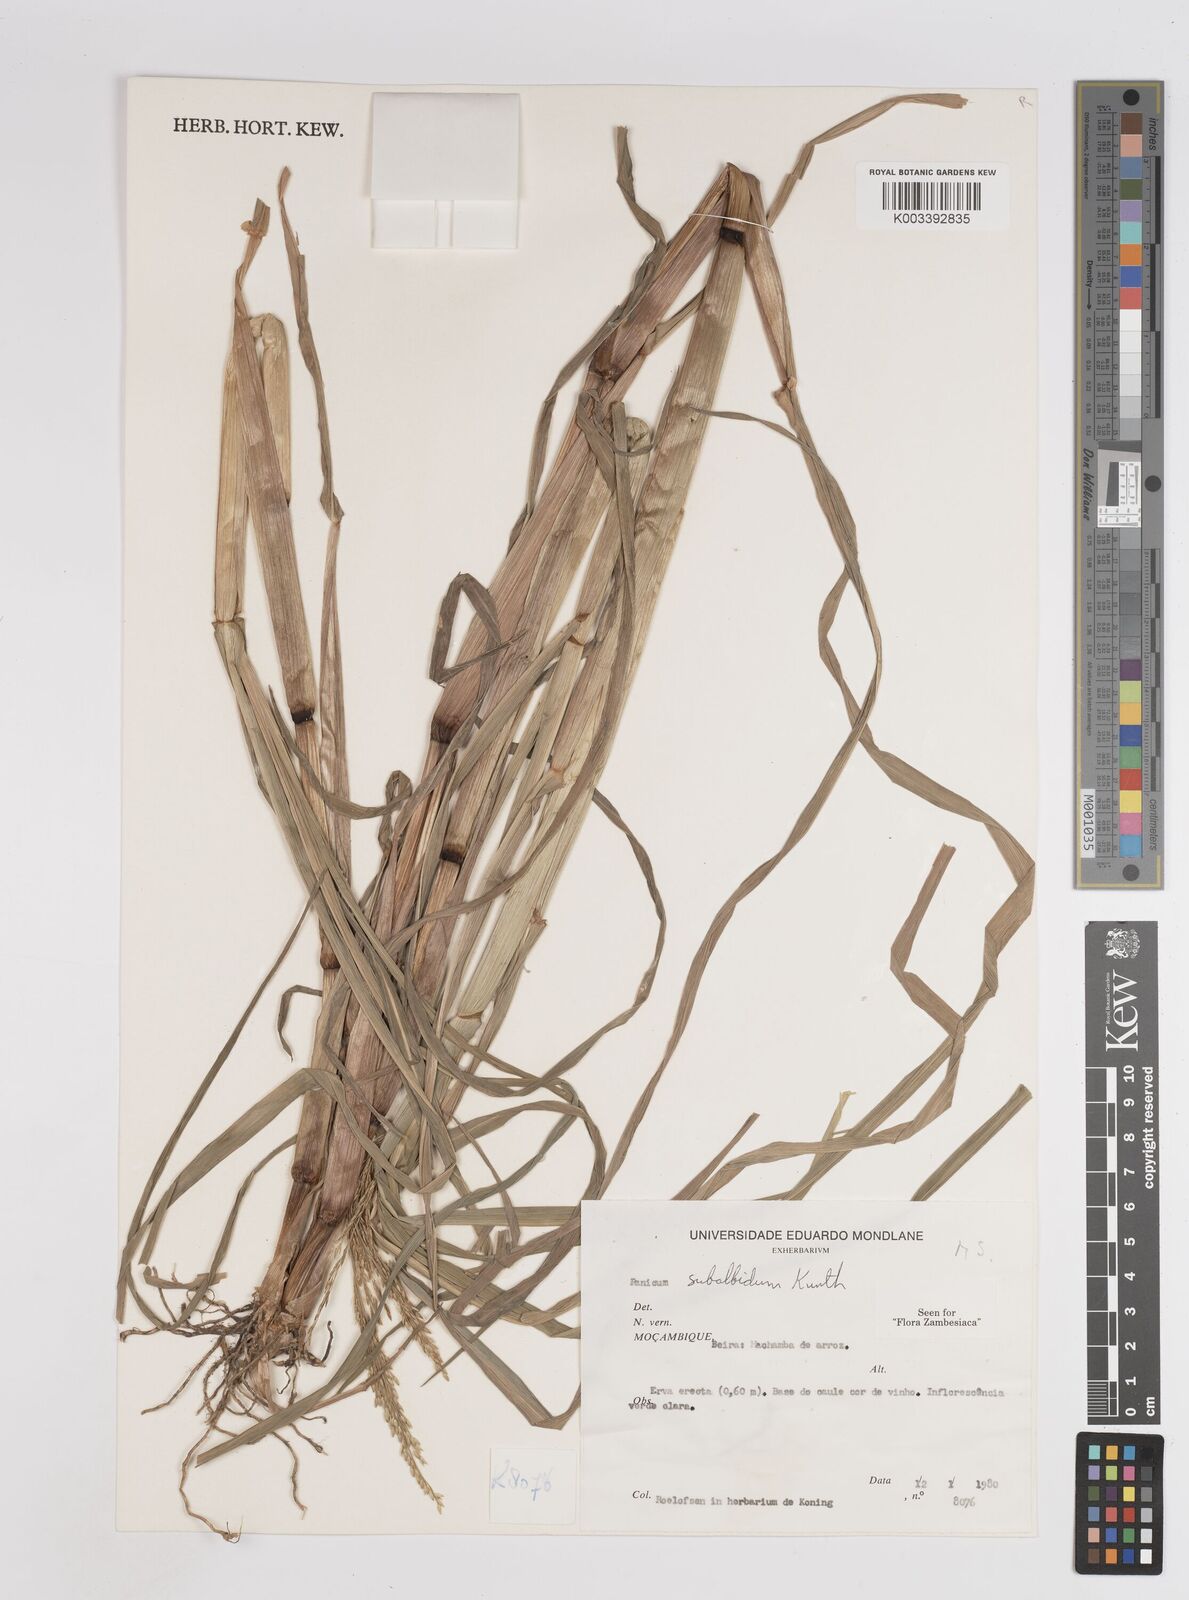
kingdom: Plantae
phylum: Tracheophyta
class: Liliopsida
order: Poales
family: Poaceae
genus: Panicum
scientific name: Panicum subalbidum
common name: Elbow buffalo grass
